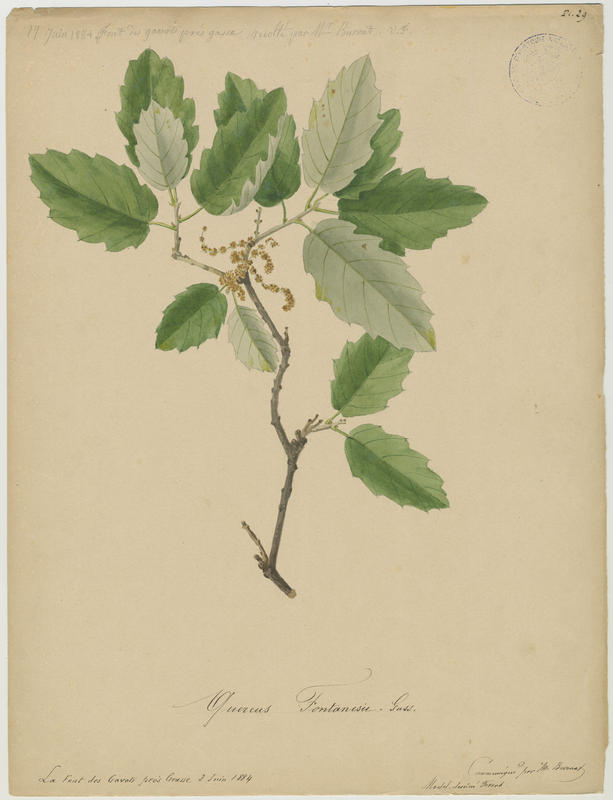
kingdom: Plantae
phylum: Tracheophyta
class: Magnoliopsida
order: Fagales
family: Fagaceae
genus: Quercus
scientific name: Quercus crenata
